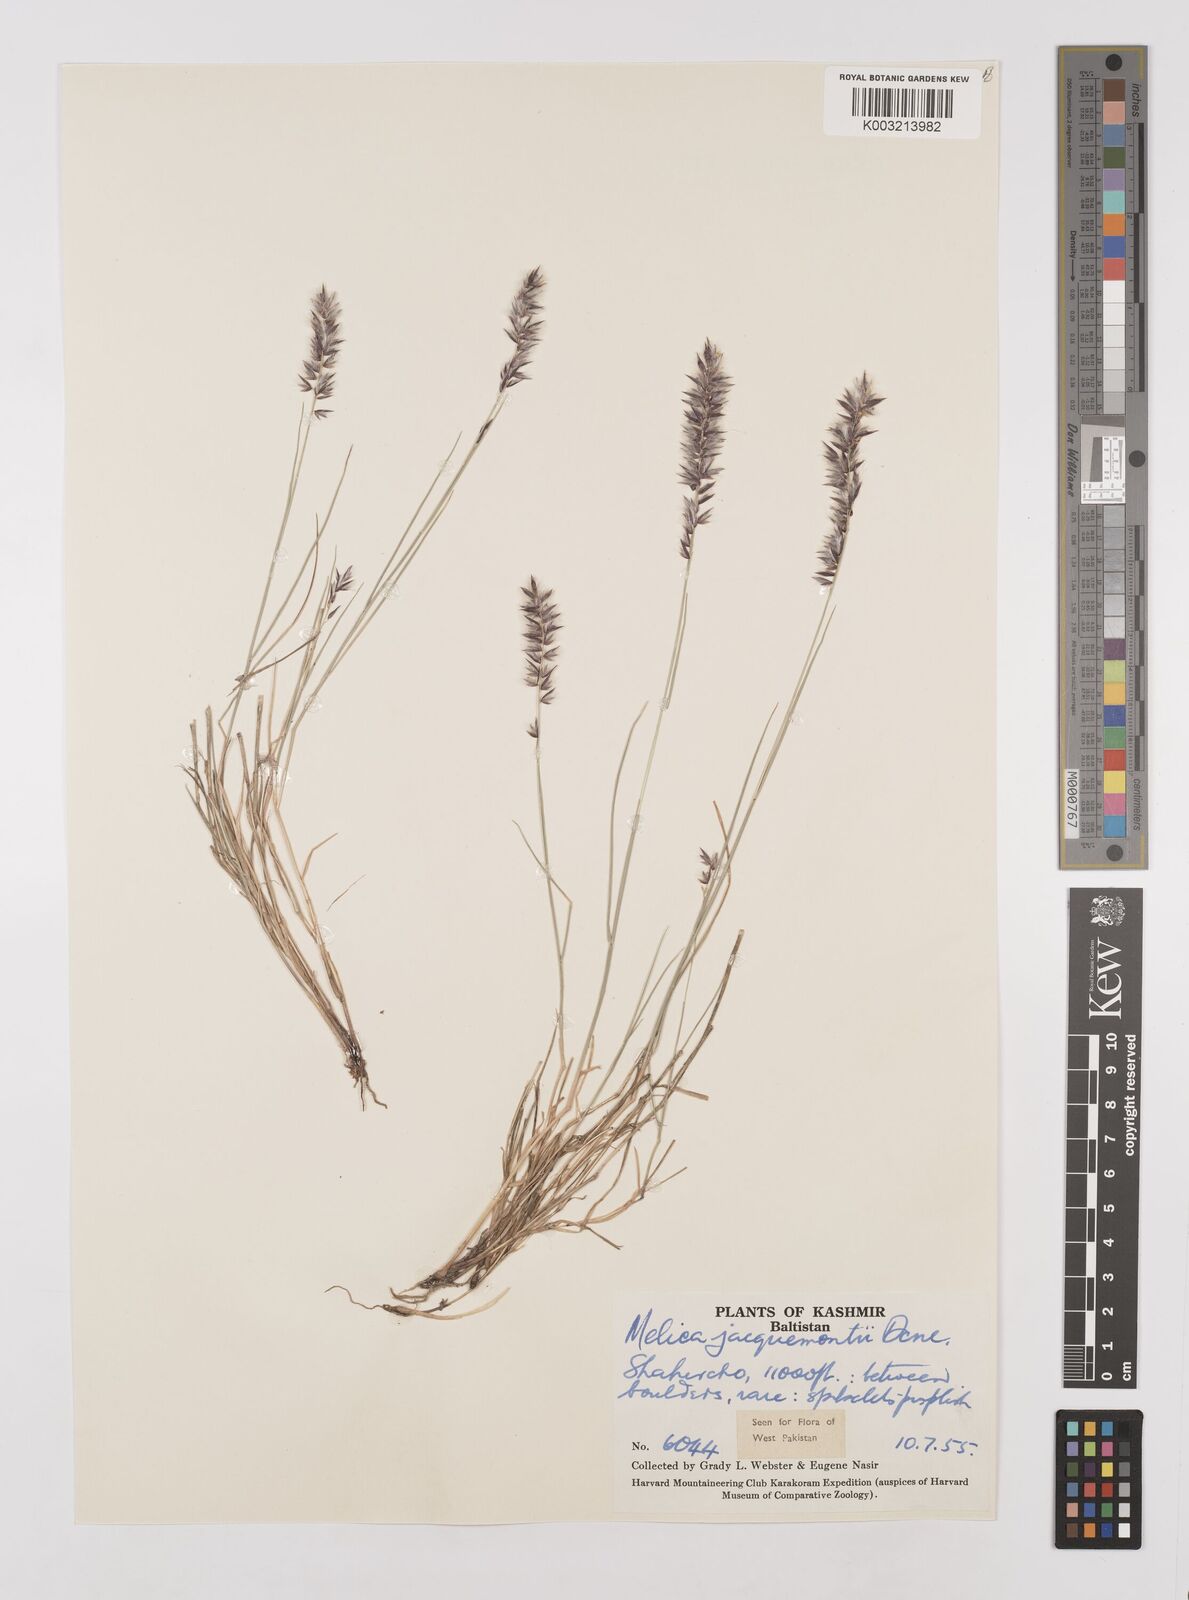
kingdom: Plantae
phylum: Tracheophyta
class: Liliopsida
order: Poales
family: Poaceae
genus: Melica
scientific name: Melica persica
